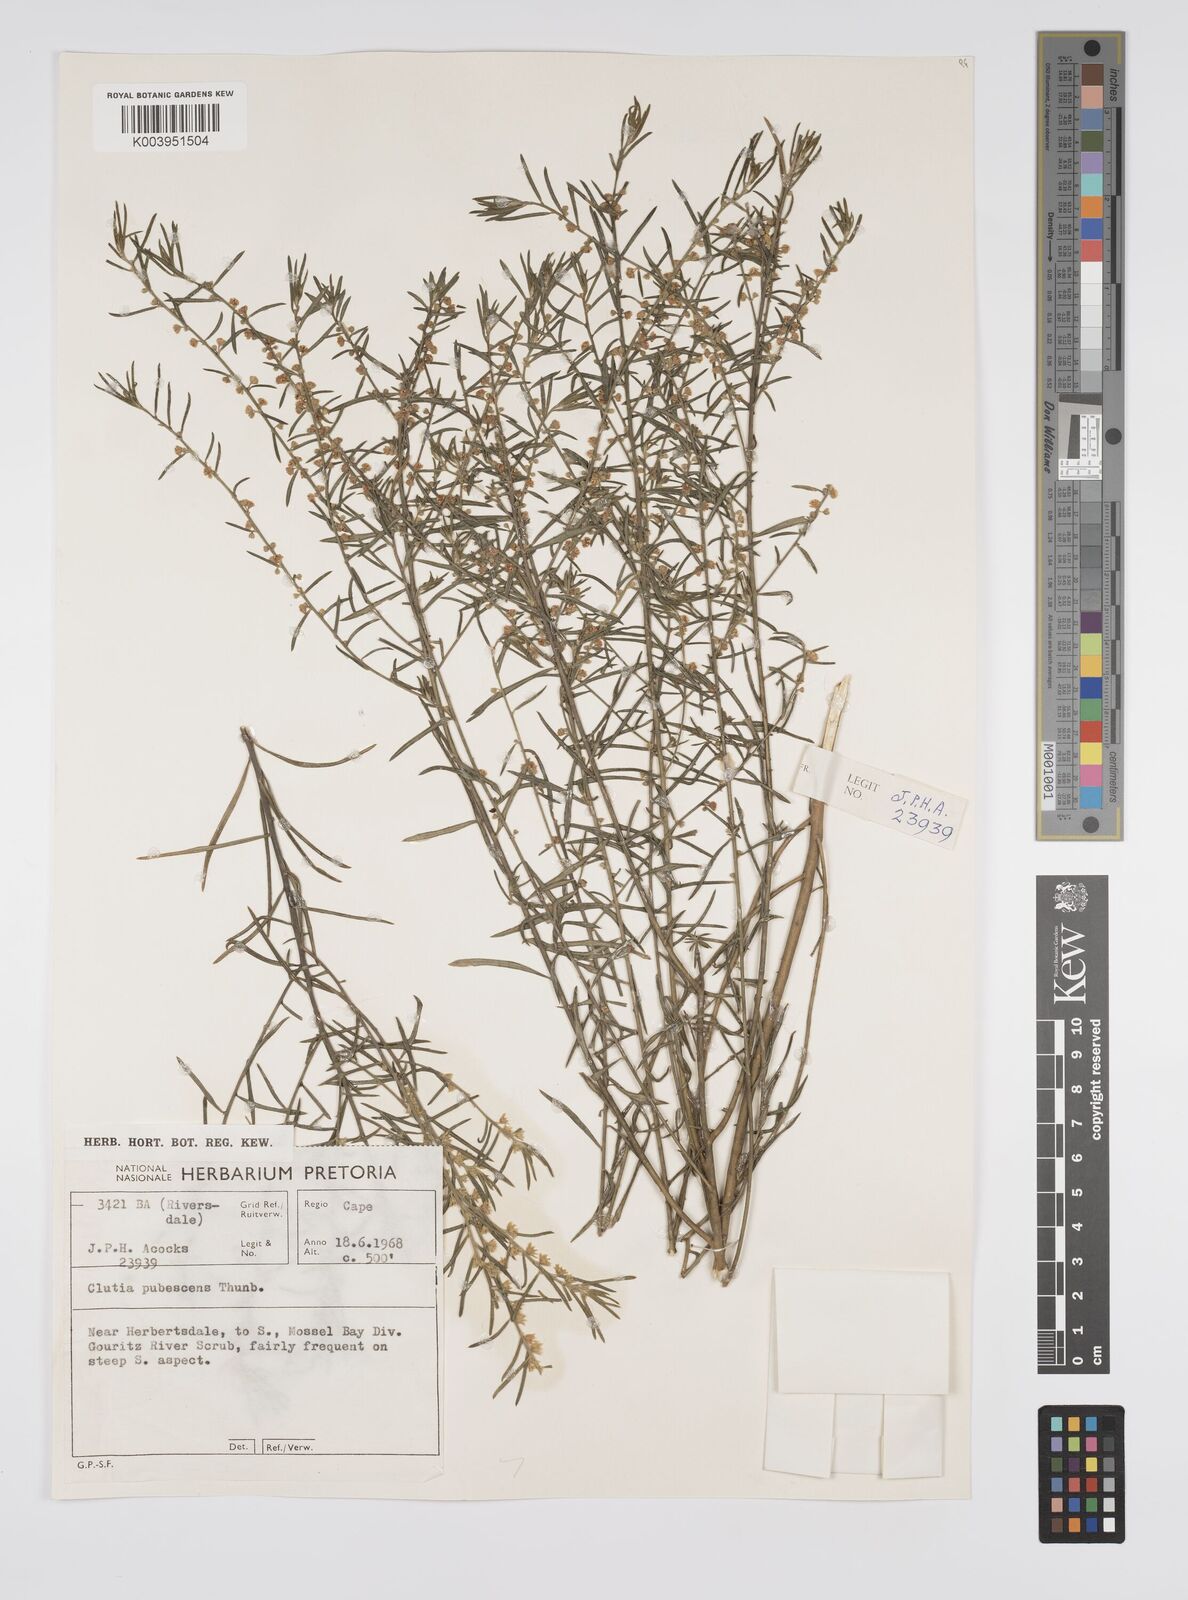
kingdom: Plantae
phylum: Tracheophyta
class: Magnoliopsida
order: Malpighiales
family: Peraceae
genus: Clutia
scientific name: Clutia
